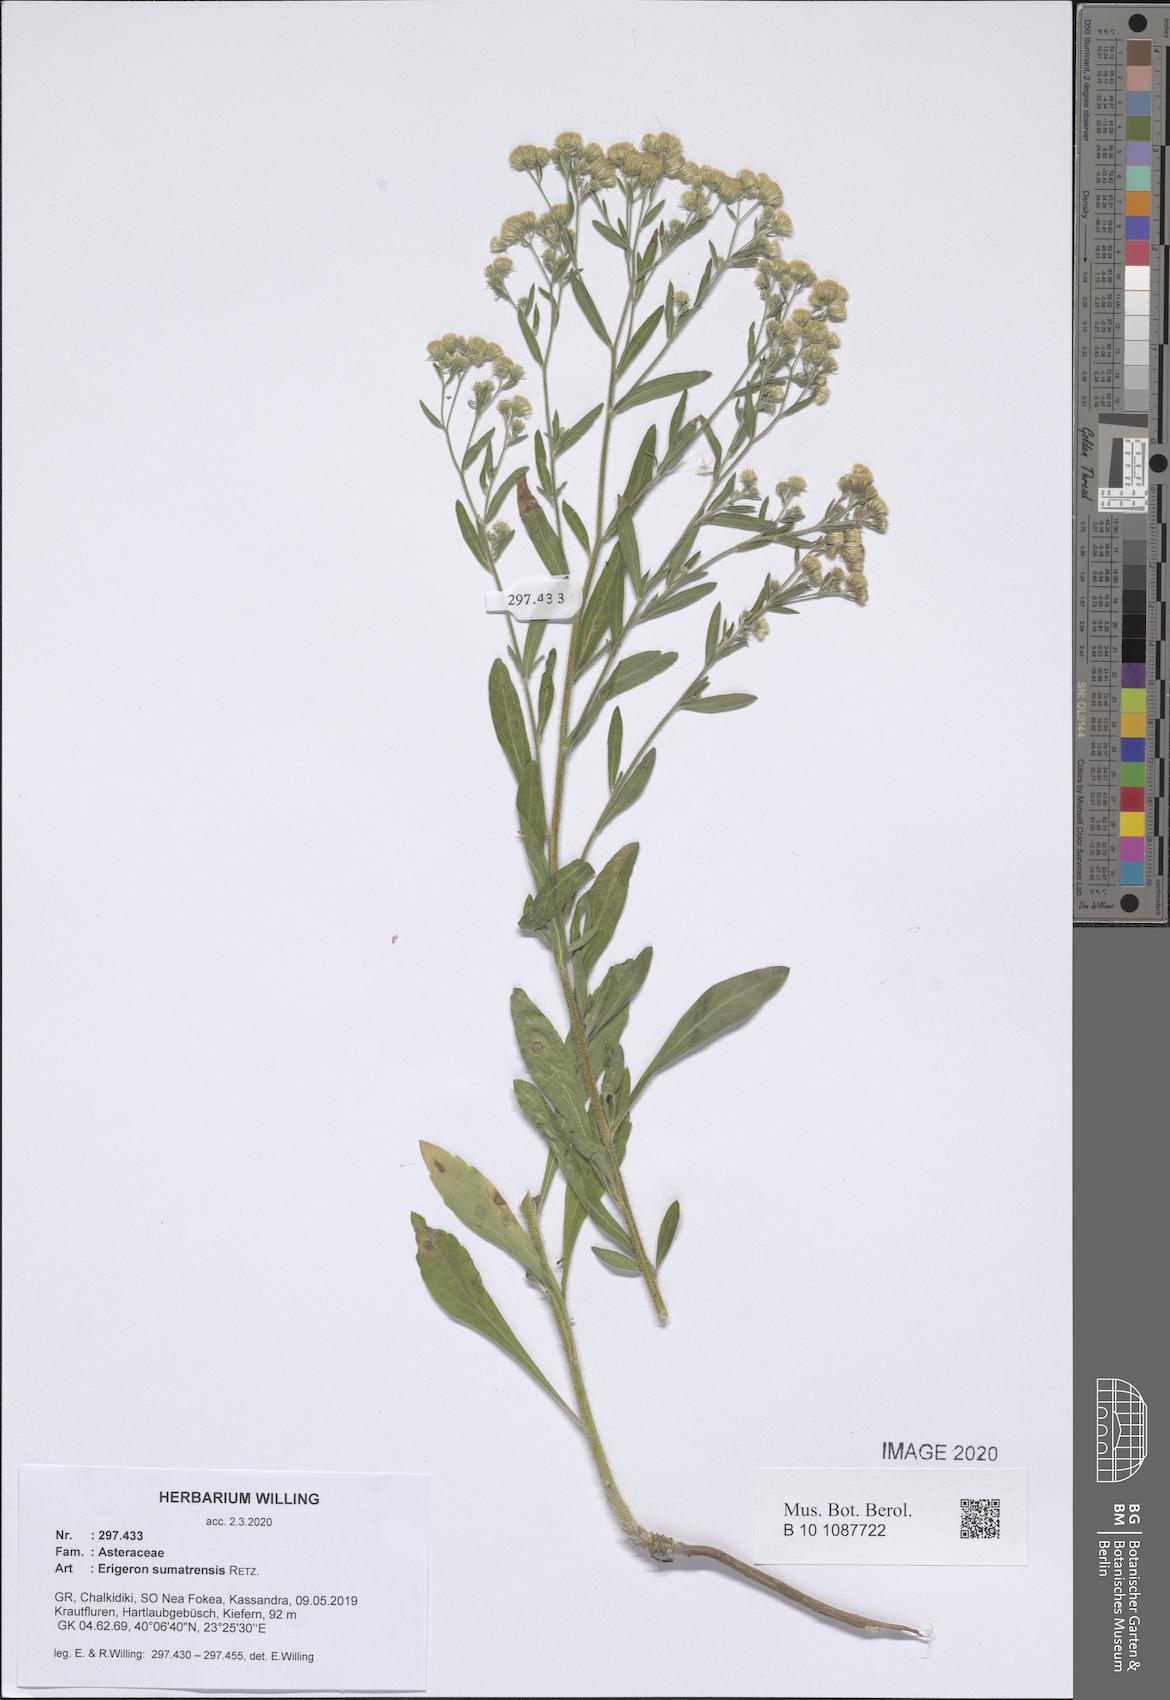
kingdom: Plantae
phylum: Tracheophyta
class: Magnoliopsida
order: Asterales
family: Asteraceae
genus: Erigeron
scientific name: Erigeron sumatrensis
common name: Daisy
